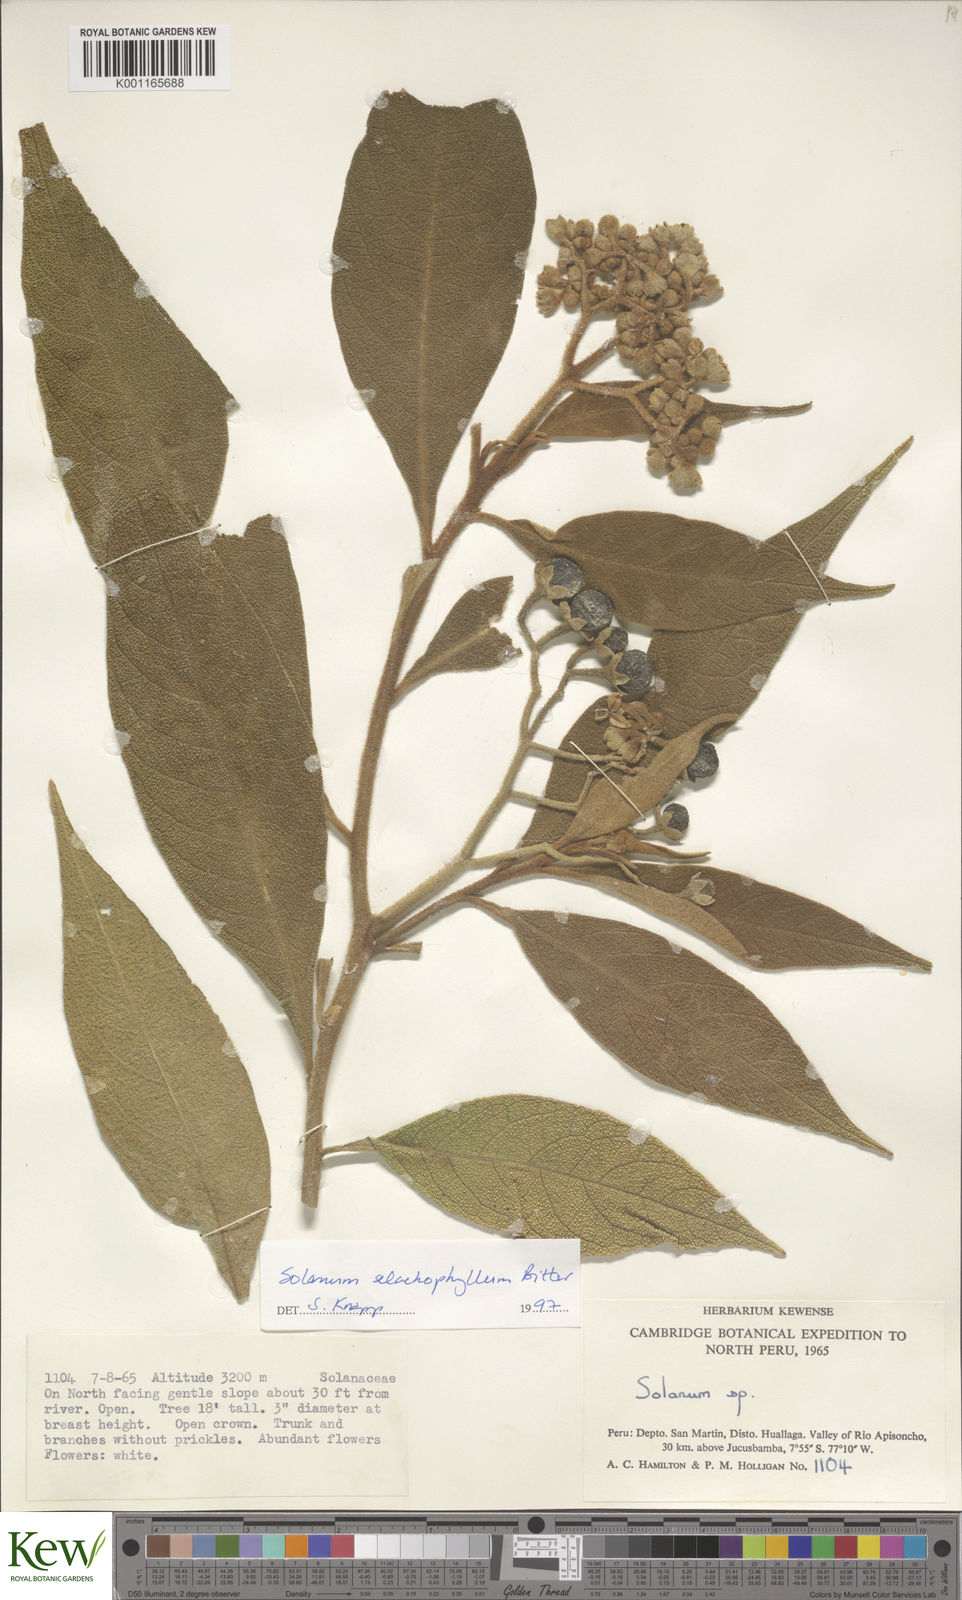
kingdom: Plantae
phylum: Tracheophyta
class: Magnoliopsida
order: Solanales
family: Solanaceae
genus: Solanum
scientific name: Solanum selachophyllum
